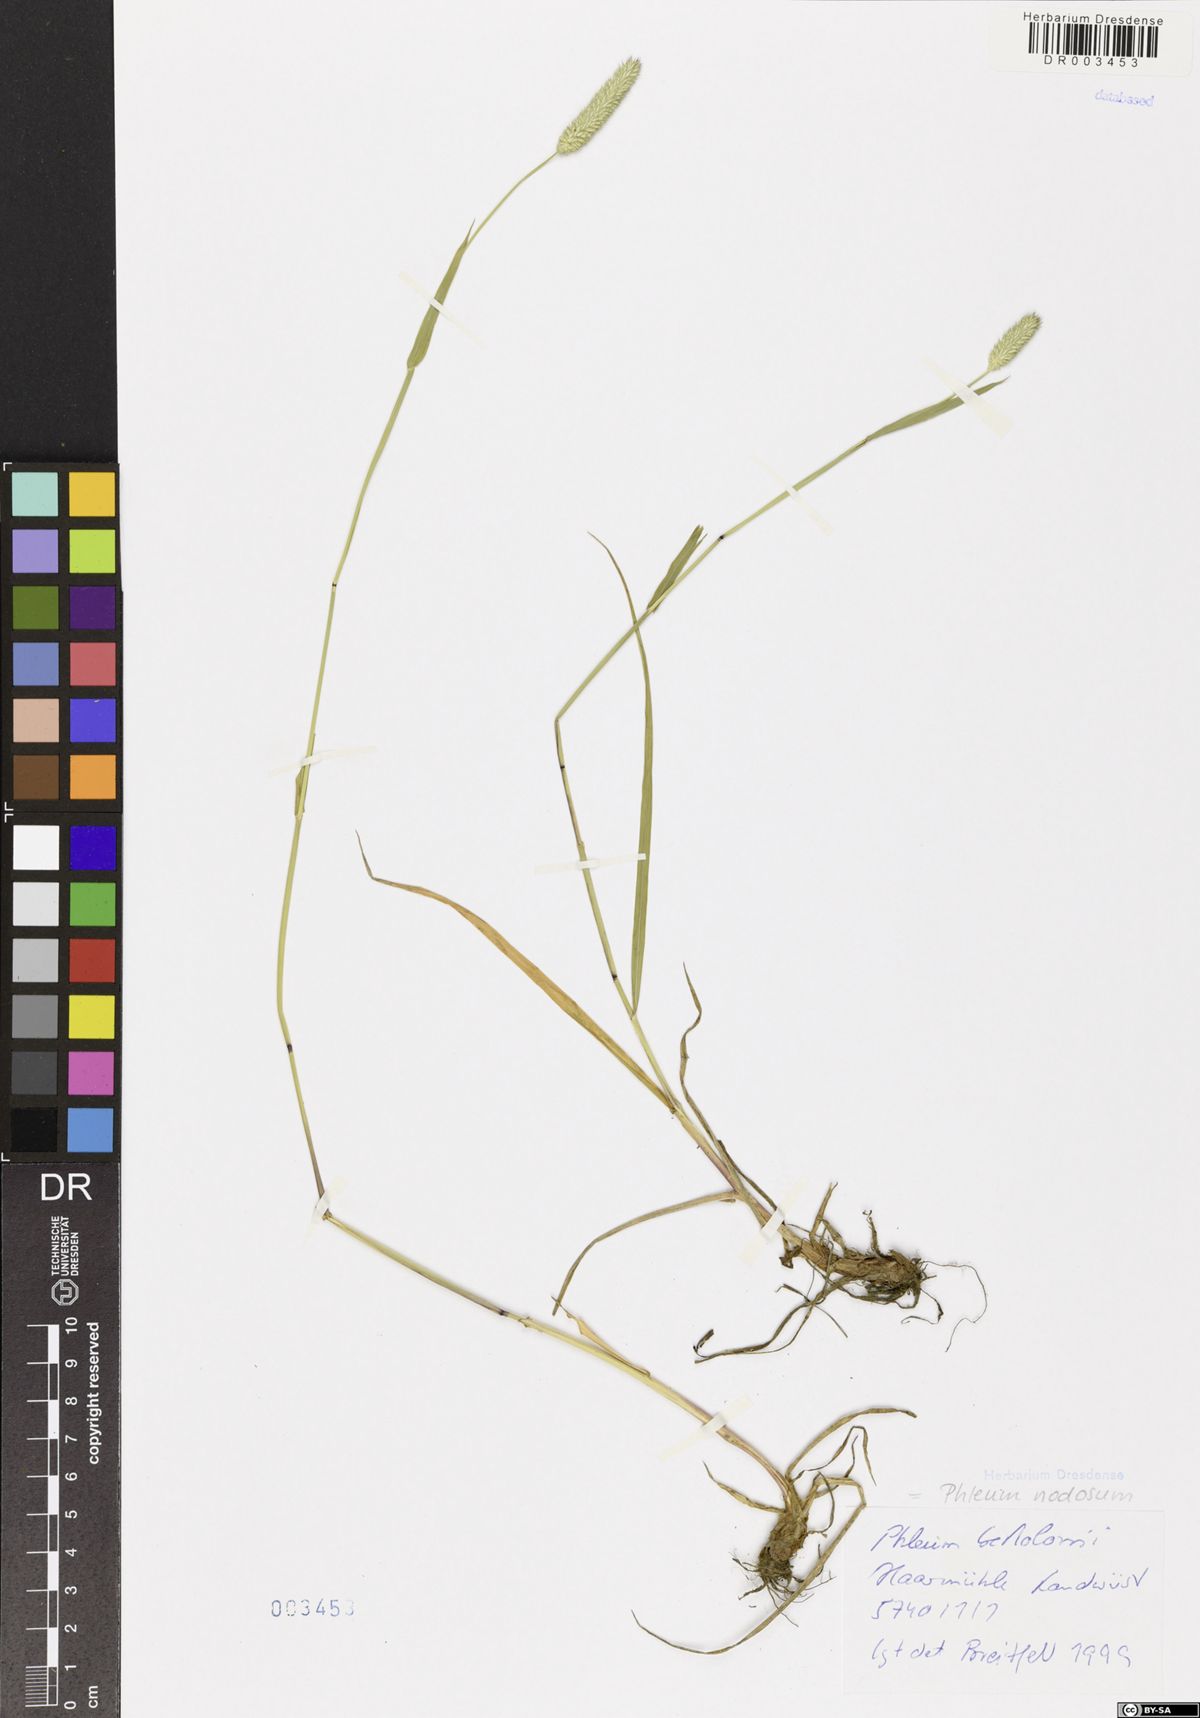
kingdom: Plantae
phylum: Tracheophyta
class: Liliopsida
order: Poales
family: Poaceae
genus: Phleum
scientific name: Phleum pratense
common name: Timothy grass
